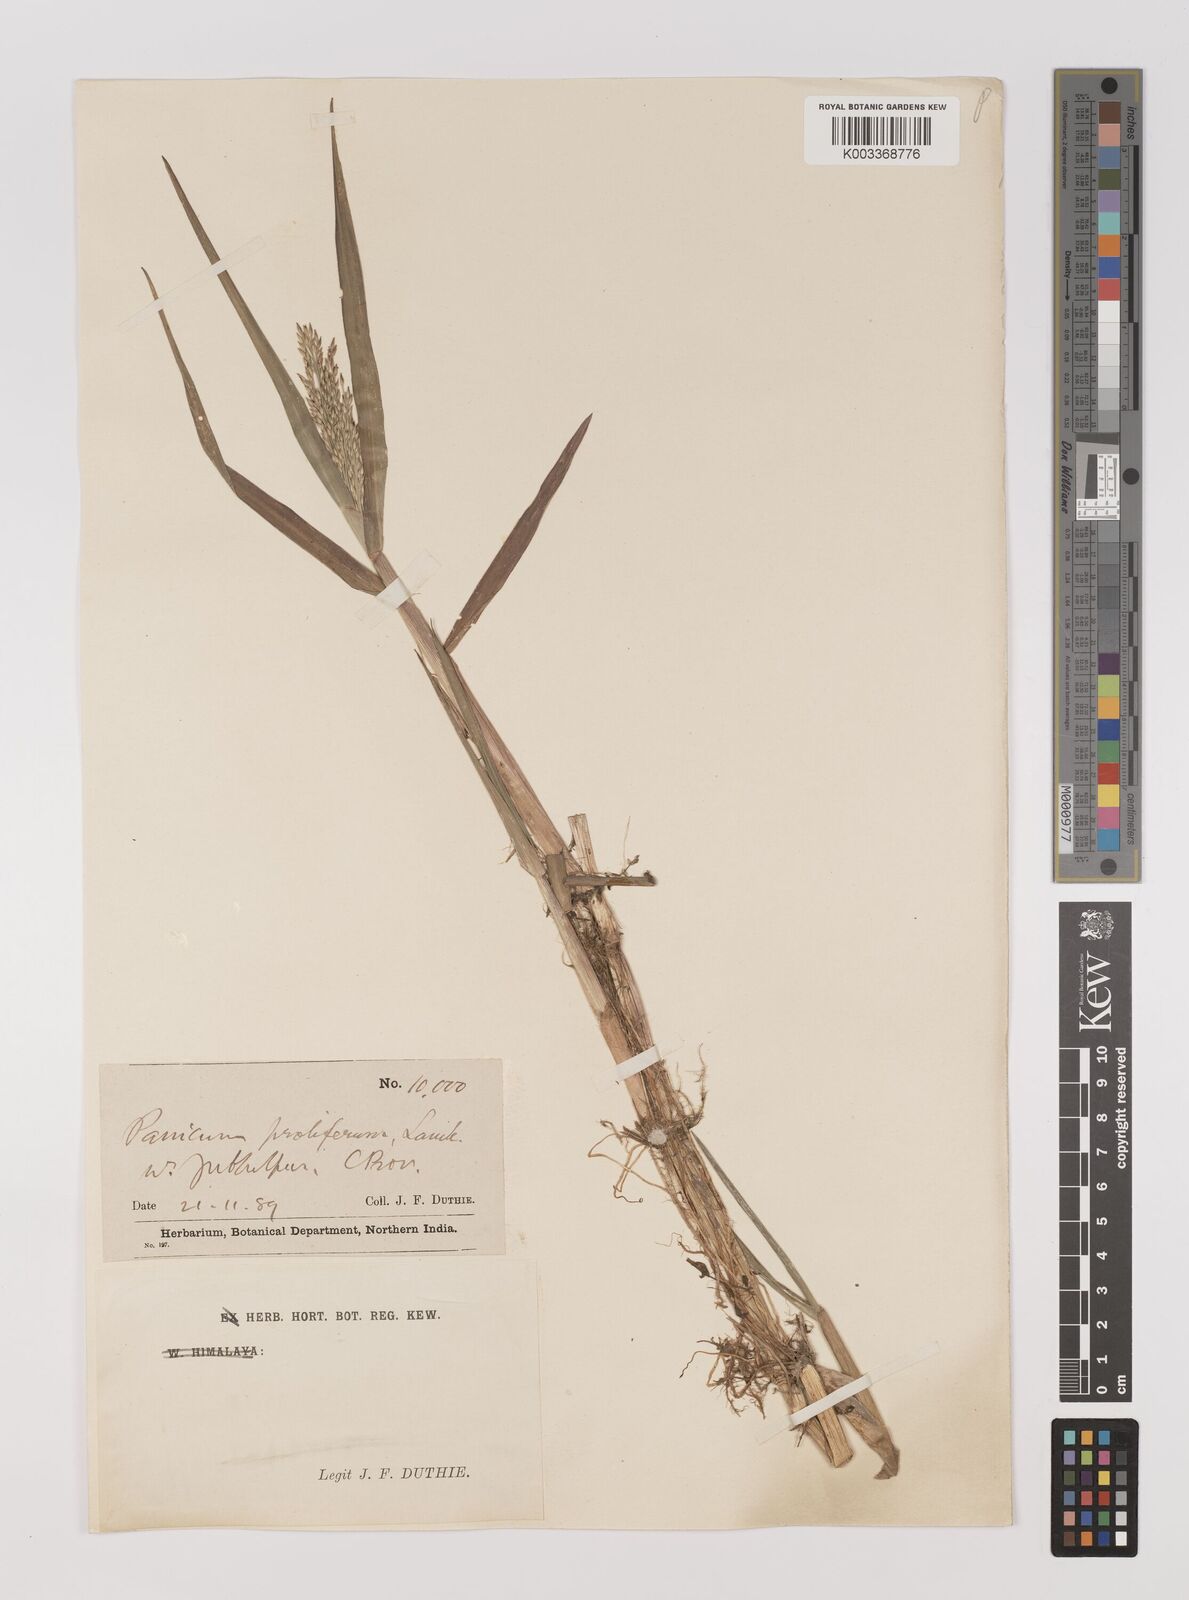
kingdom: Plantae
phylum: Tracheophyta
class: Liliopsida
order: Poales
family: Poaceae
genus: Louisiella
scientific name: Louisiella paludosa
